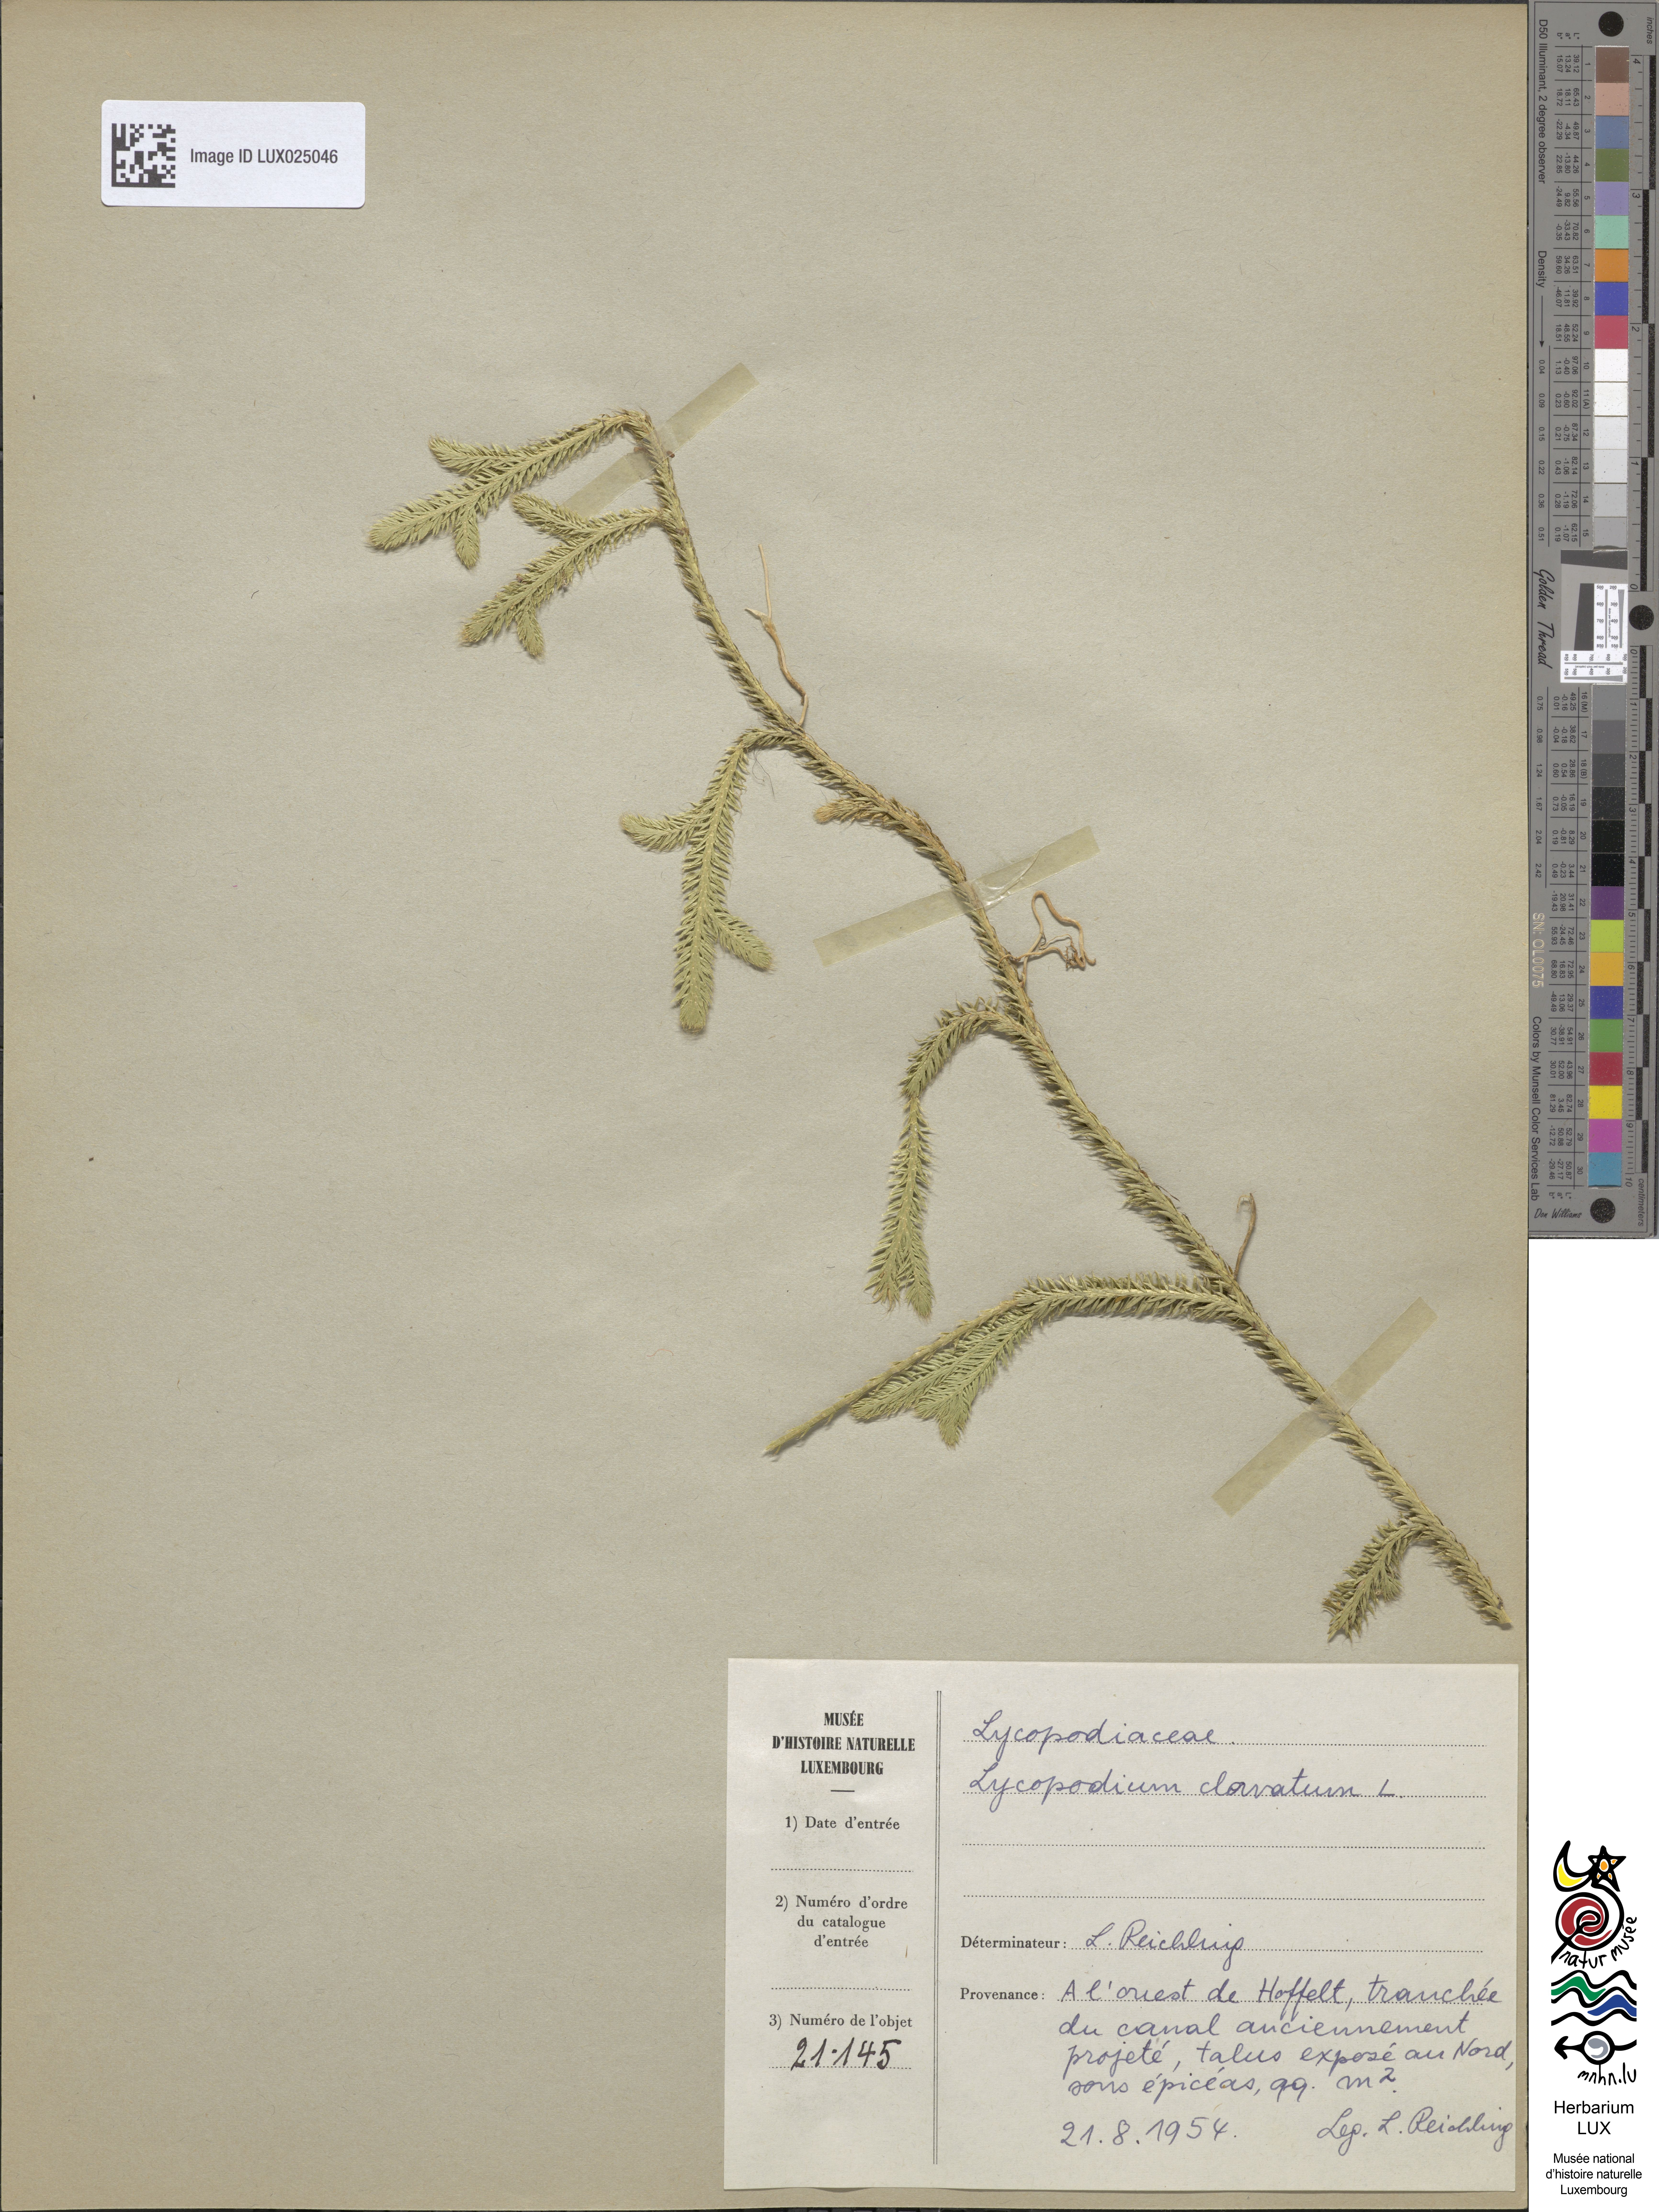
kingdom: Plantae
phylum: Tracheophyta
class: Lycopodiopsida
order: Lycopodiales
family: Lycopodiaceae
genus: Lycopodium
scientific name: Lycopodium clavatum
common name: Stag's-horn clubmoss
